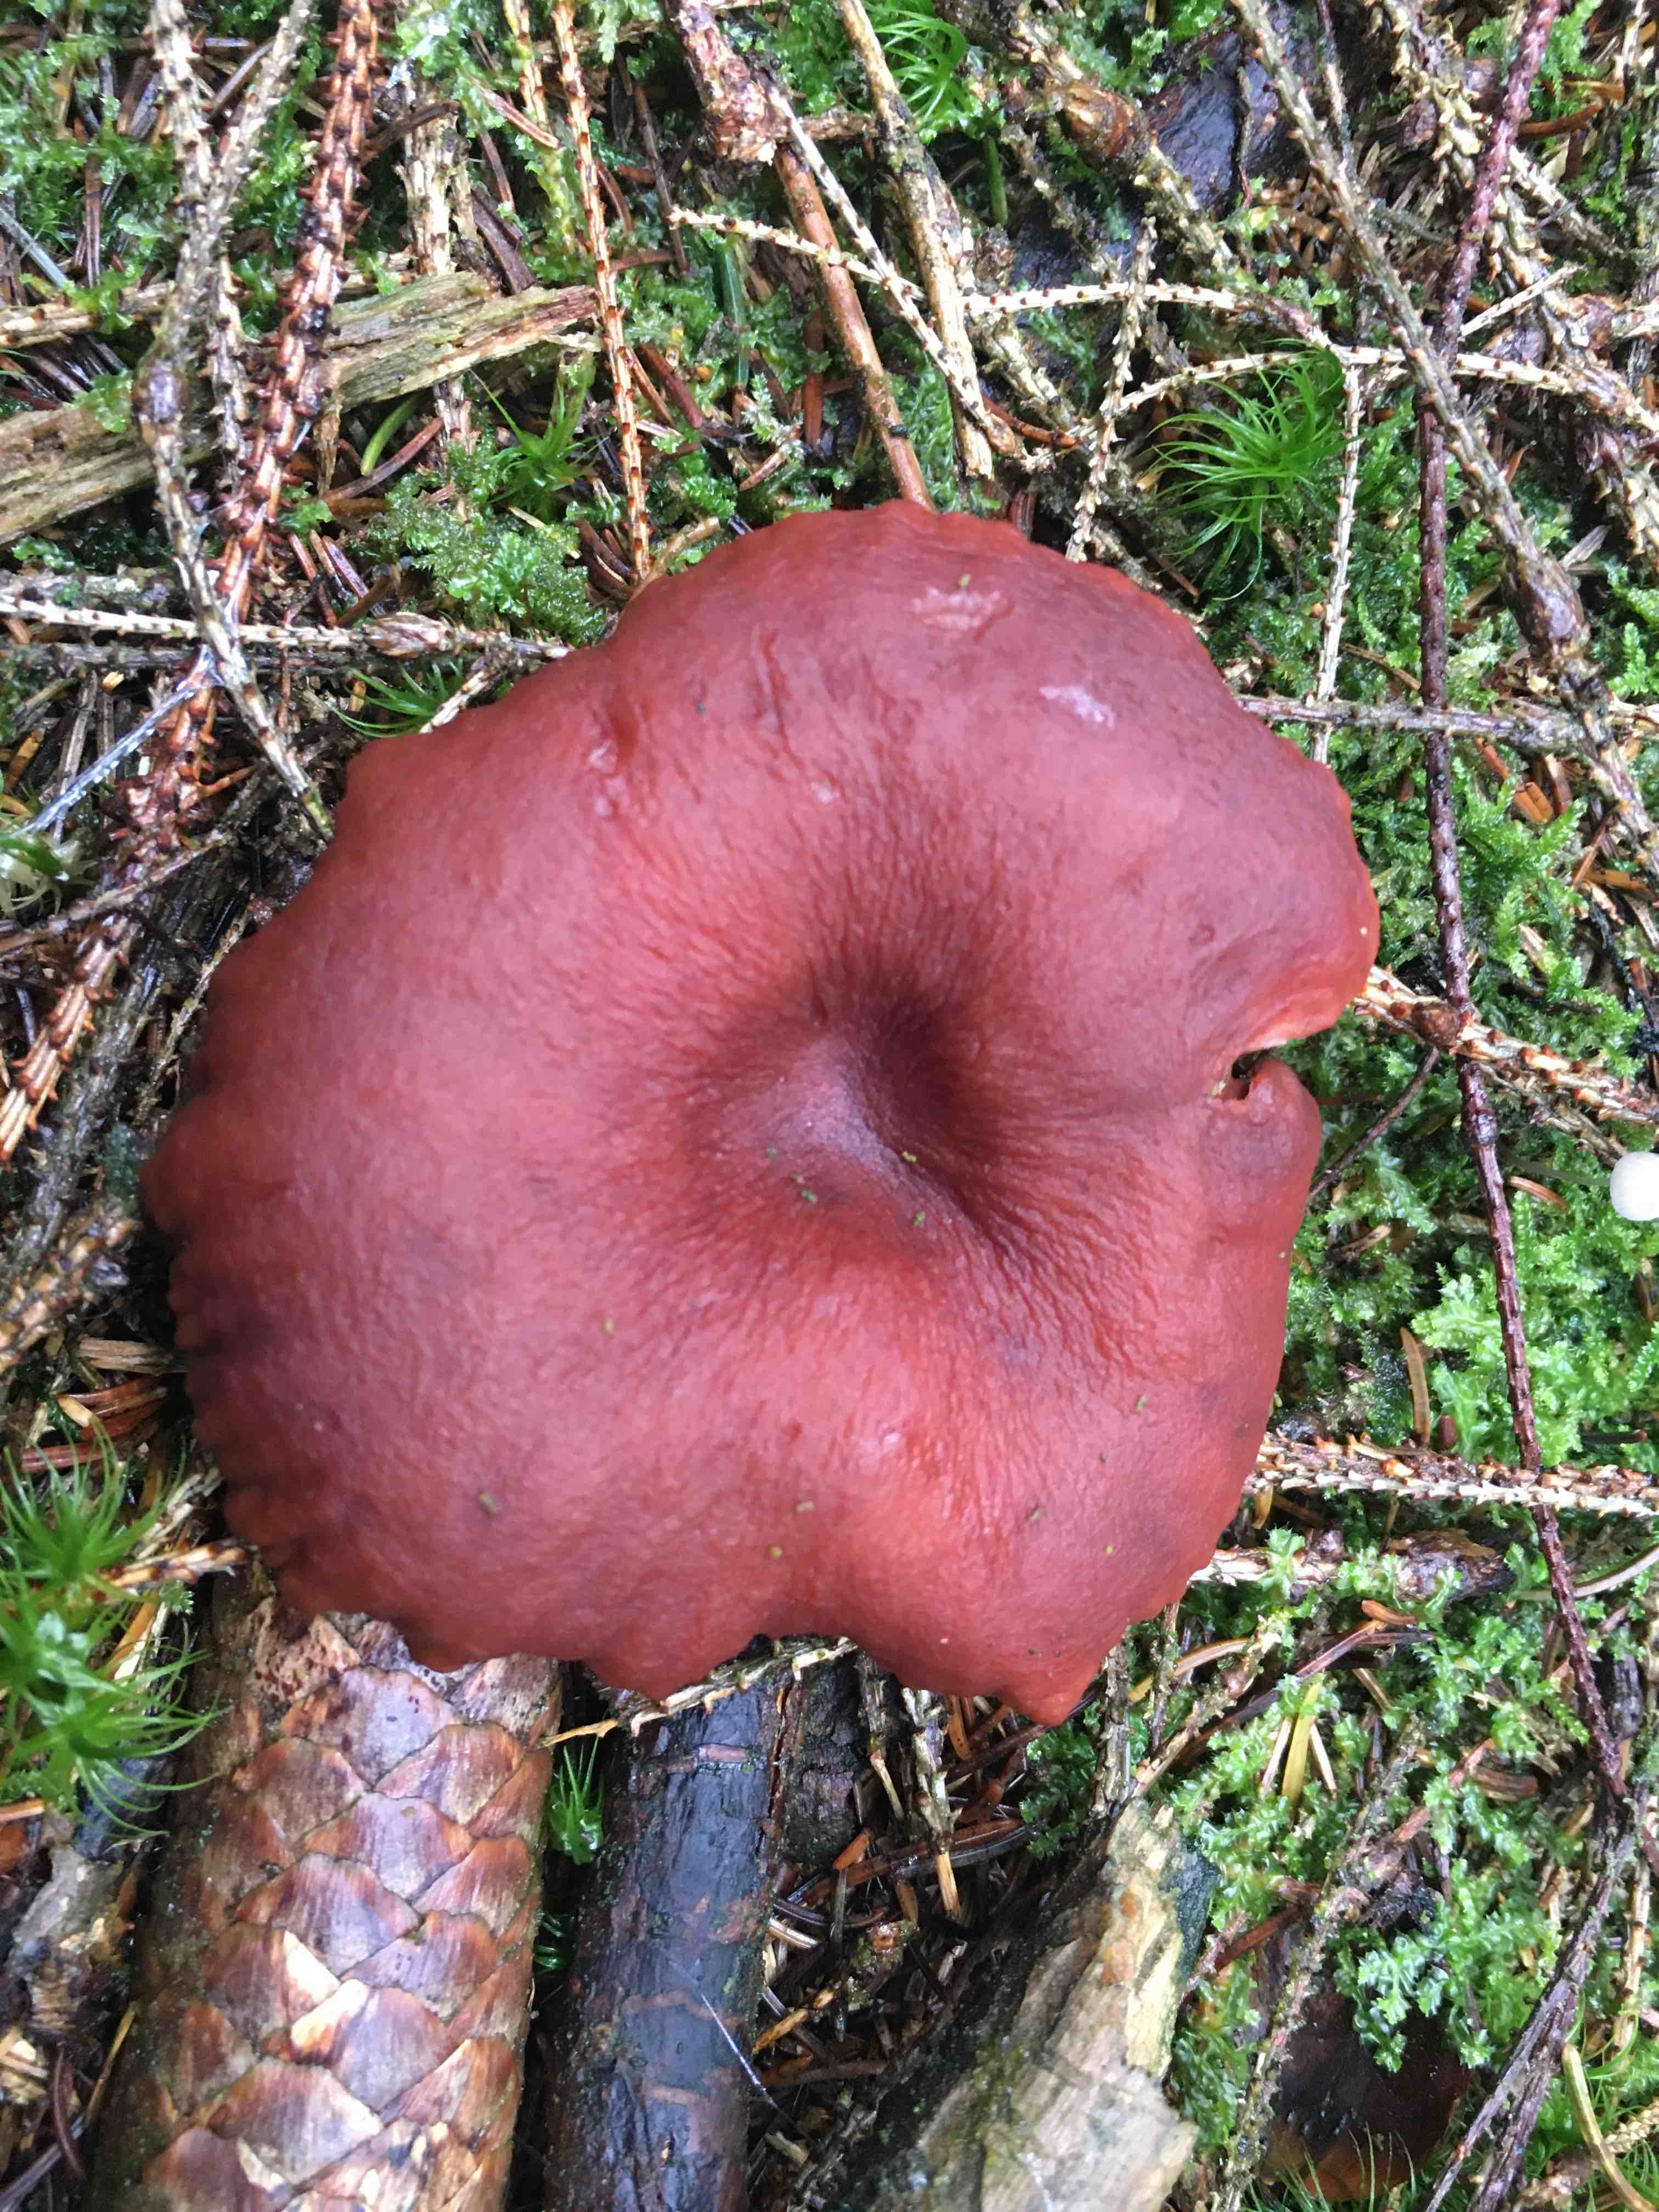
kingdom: Fungi
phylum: Basidiomycota
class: Agaricomycetes
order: Russulales
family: Russulaceae
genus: Lactarius
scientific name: Lactarius camphoratus
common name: kamfer-mælkehat
